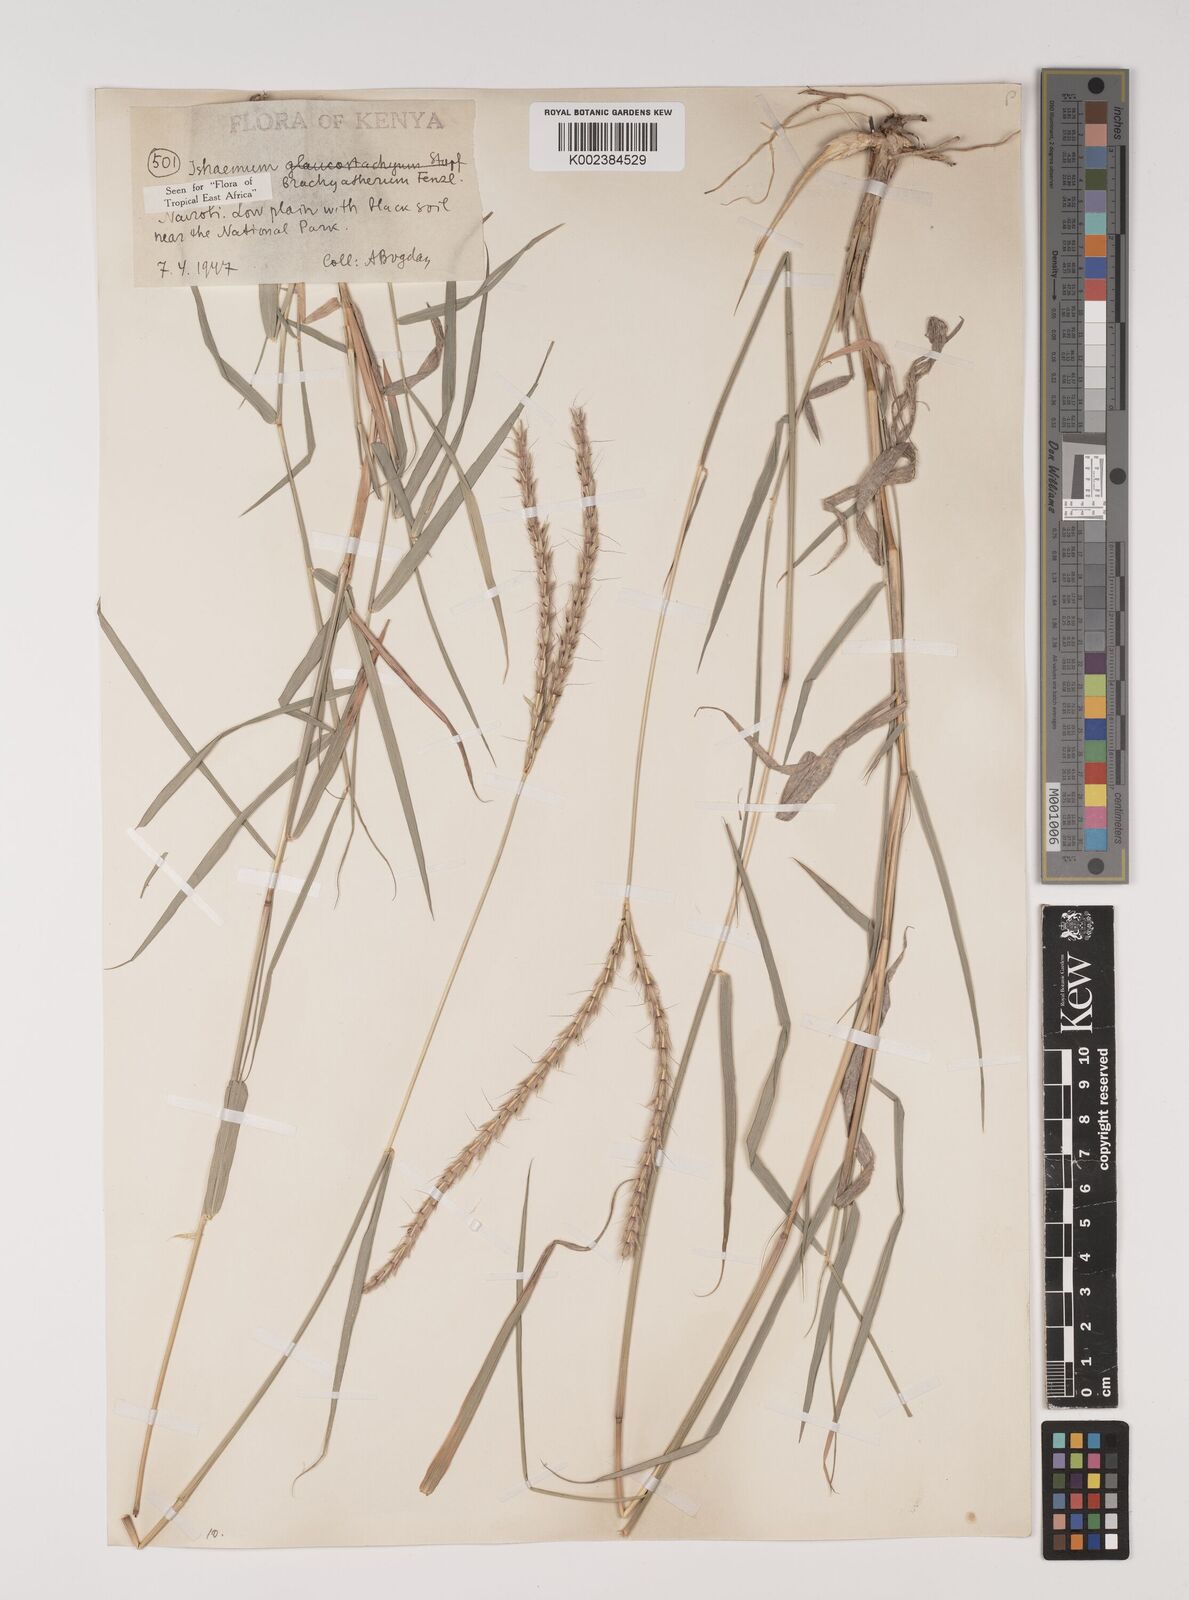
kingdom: Plantae
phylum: Tracheophyta
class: Liliopsida
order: Poales
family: Poaceae
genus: Ischaemum
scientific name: Ischaemum afrum
